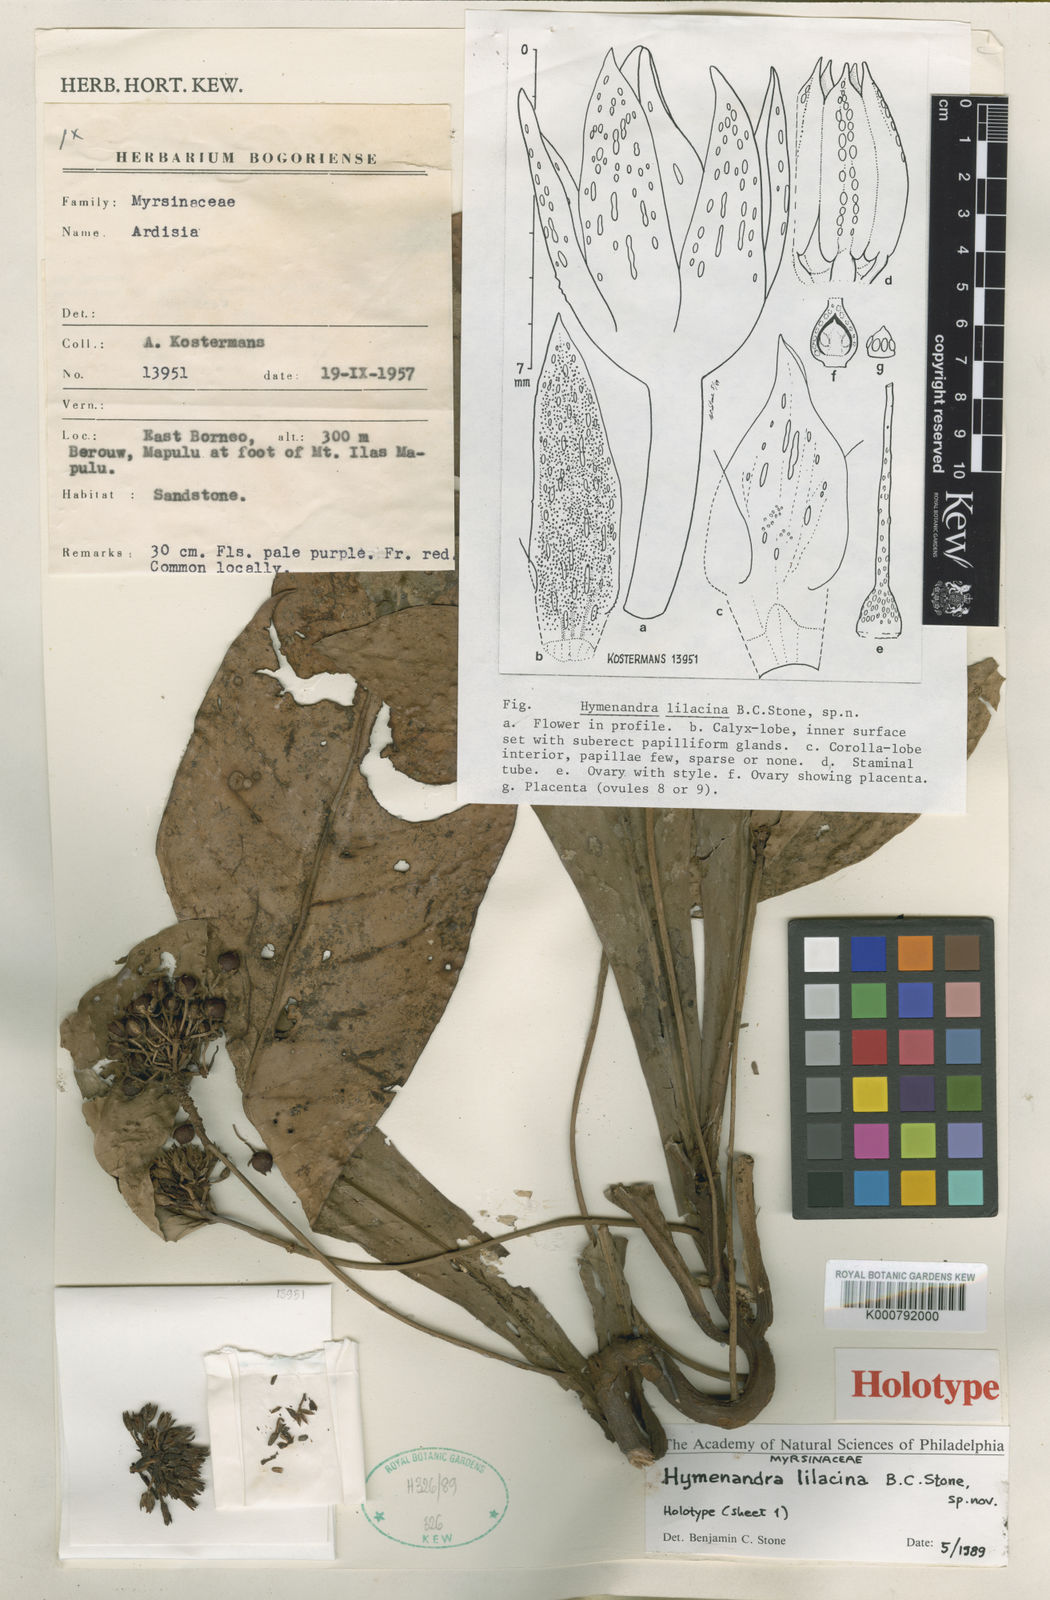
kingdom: Plantae
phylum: Tracheophyta
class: Magnoliopsida
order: Ericales
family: Primulaceae
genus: Hymenandra
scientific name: Hymenandra lilacina
